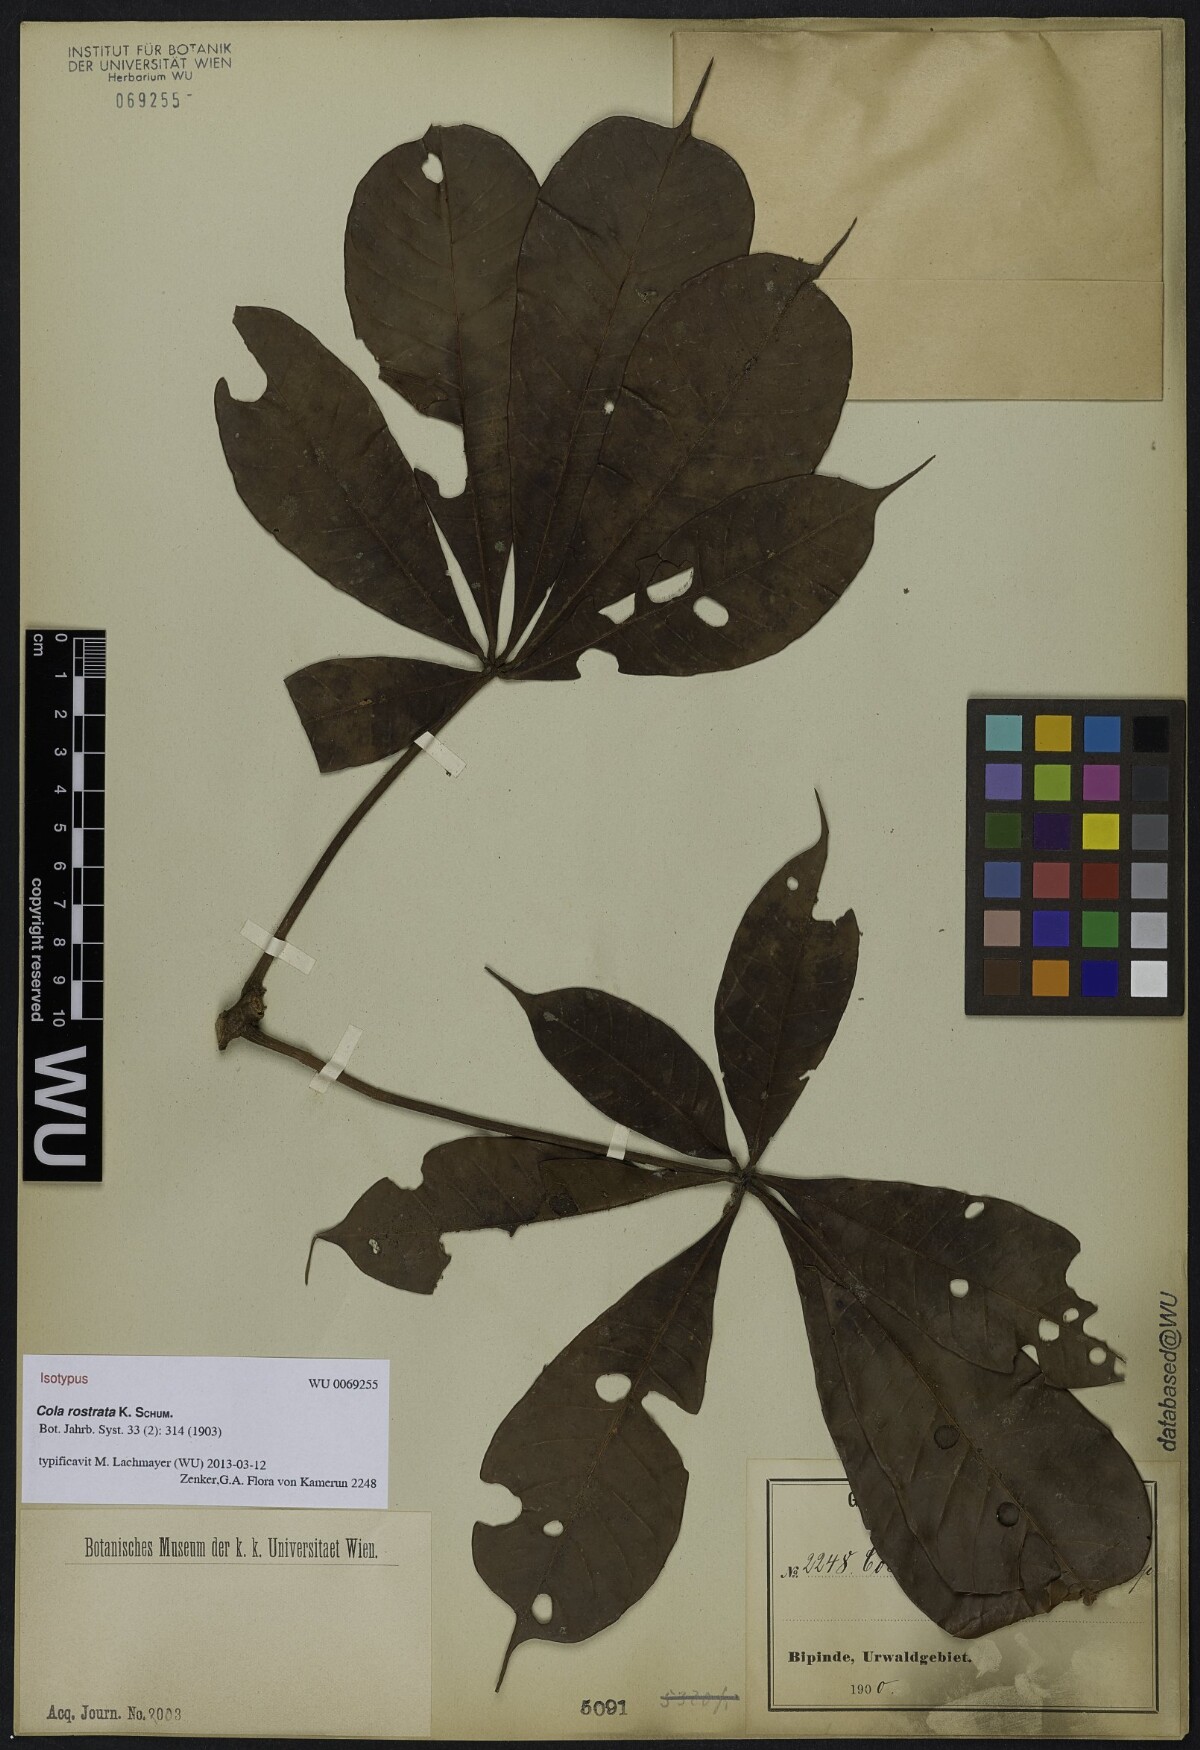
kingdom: Plantae
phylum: Tracheophyta
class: Magnoliopsida
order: Malvales
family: Malvaceae
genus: Cola
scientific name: Cola rostrata
